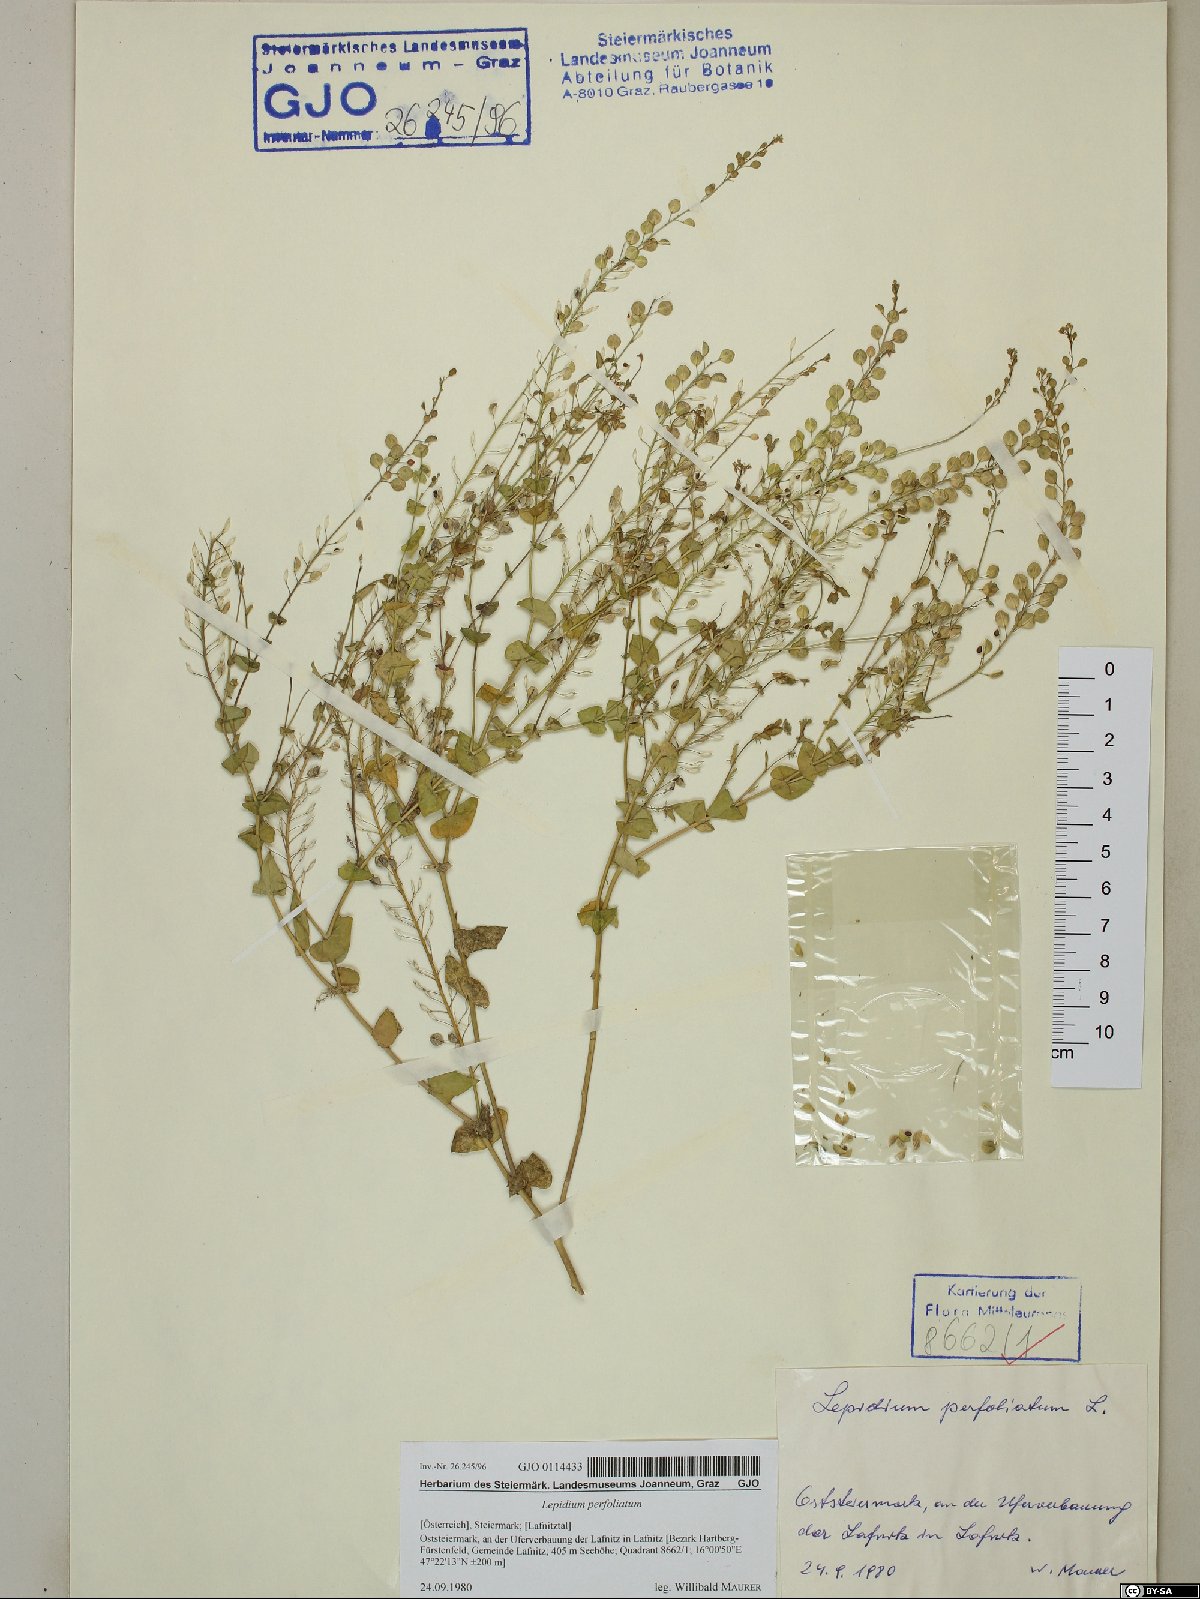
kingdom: Plantae
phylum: Tracheophyta
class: Magnoliopsida
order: Brassicales
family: Brassicaceae
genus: Lepidium
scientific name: Lepidium perfoliatum
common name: Perfoliate pepperwort
